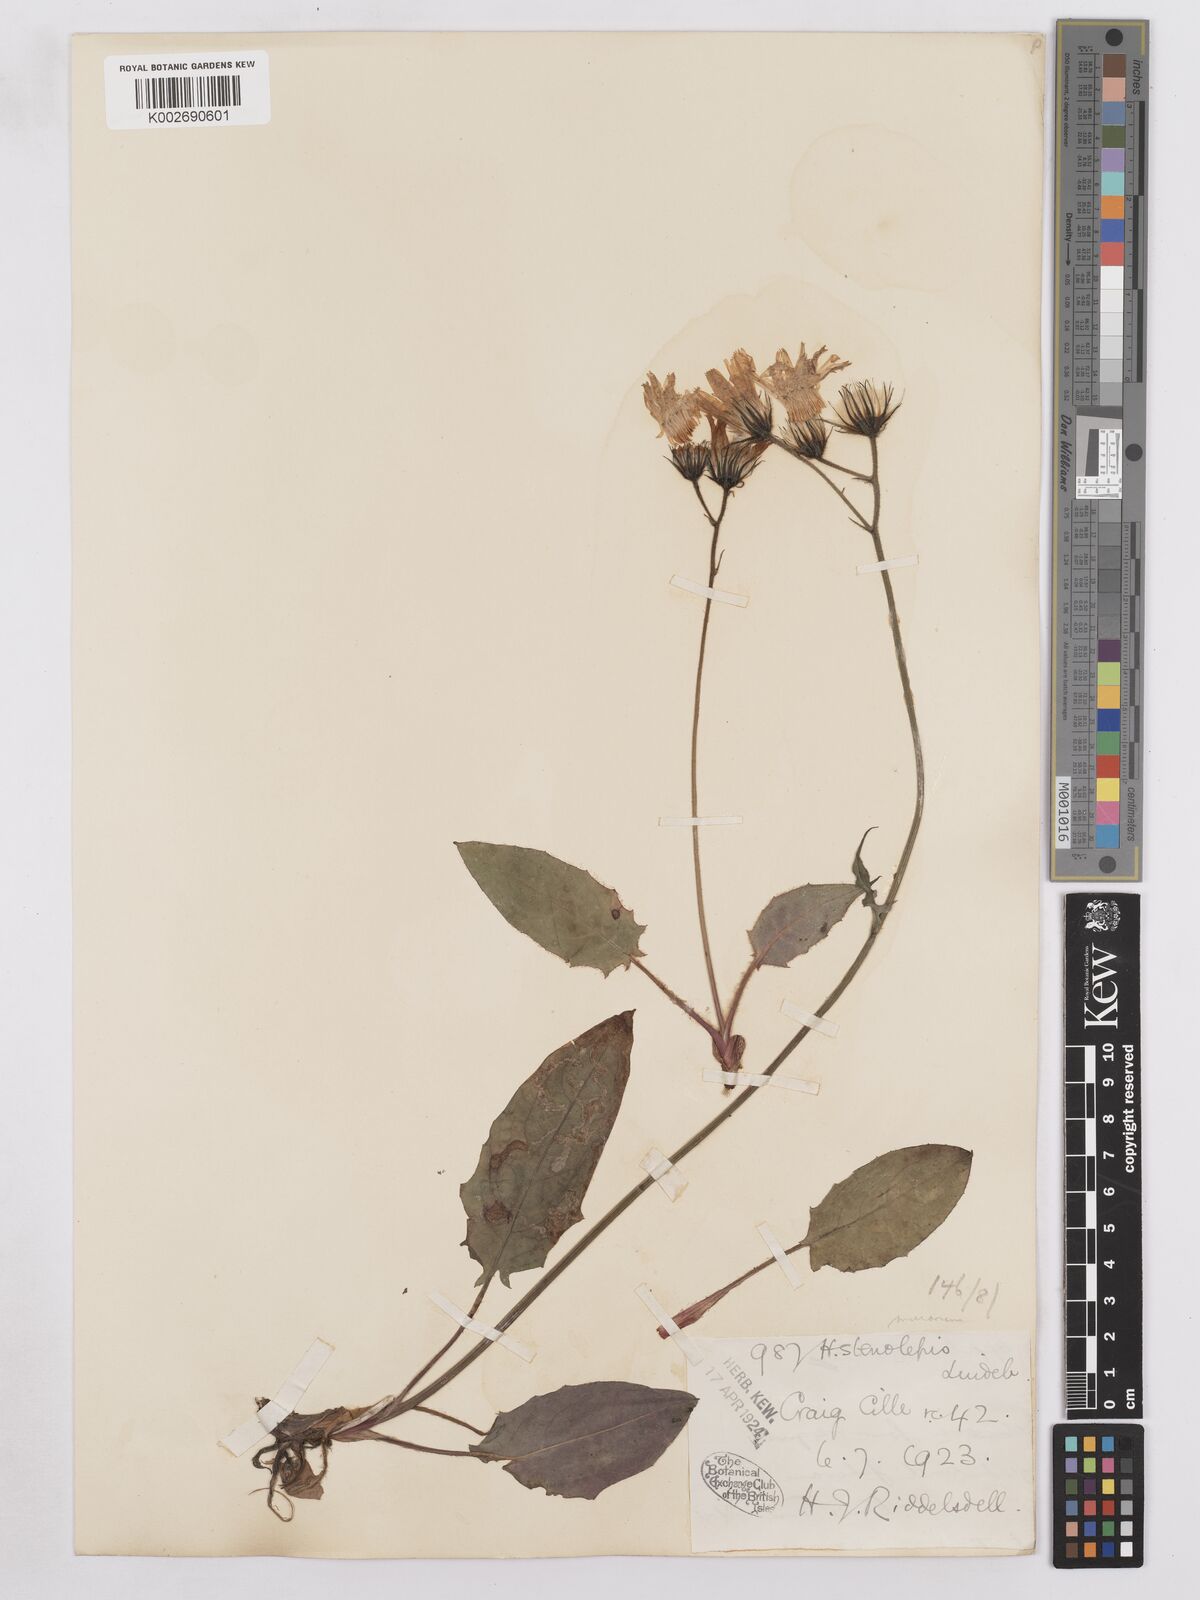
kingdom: Plantae
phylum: Tracheophyta
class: Magnoliopsida
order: Asterales
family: Asteraceae
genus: Hieracium
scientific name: Hieracium subbritannicum
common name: Limestone hawkweed
